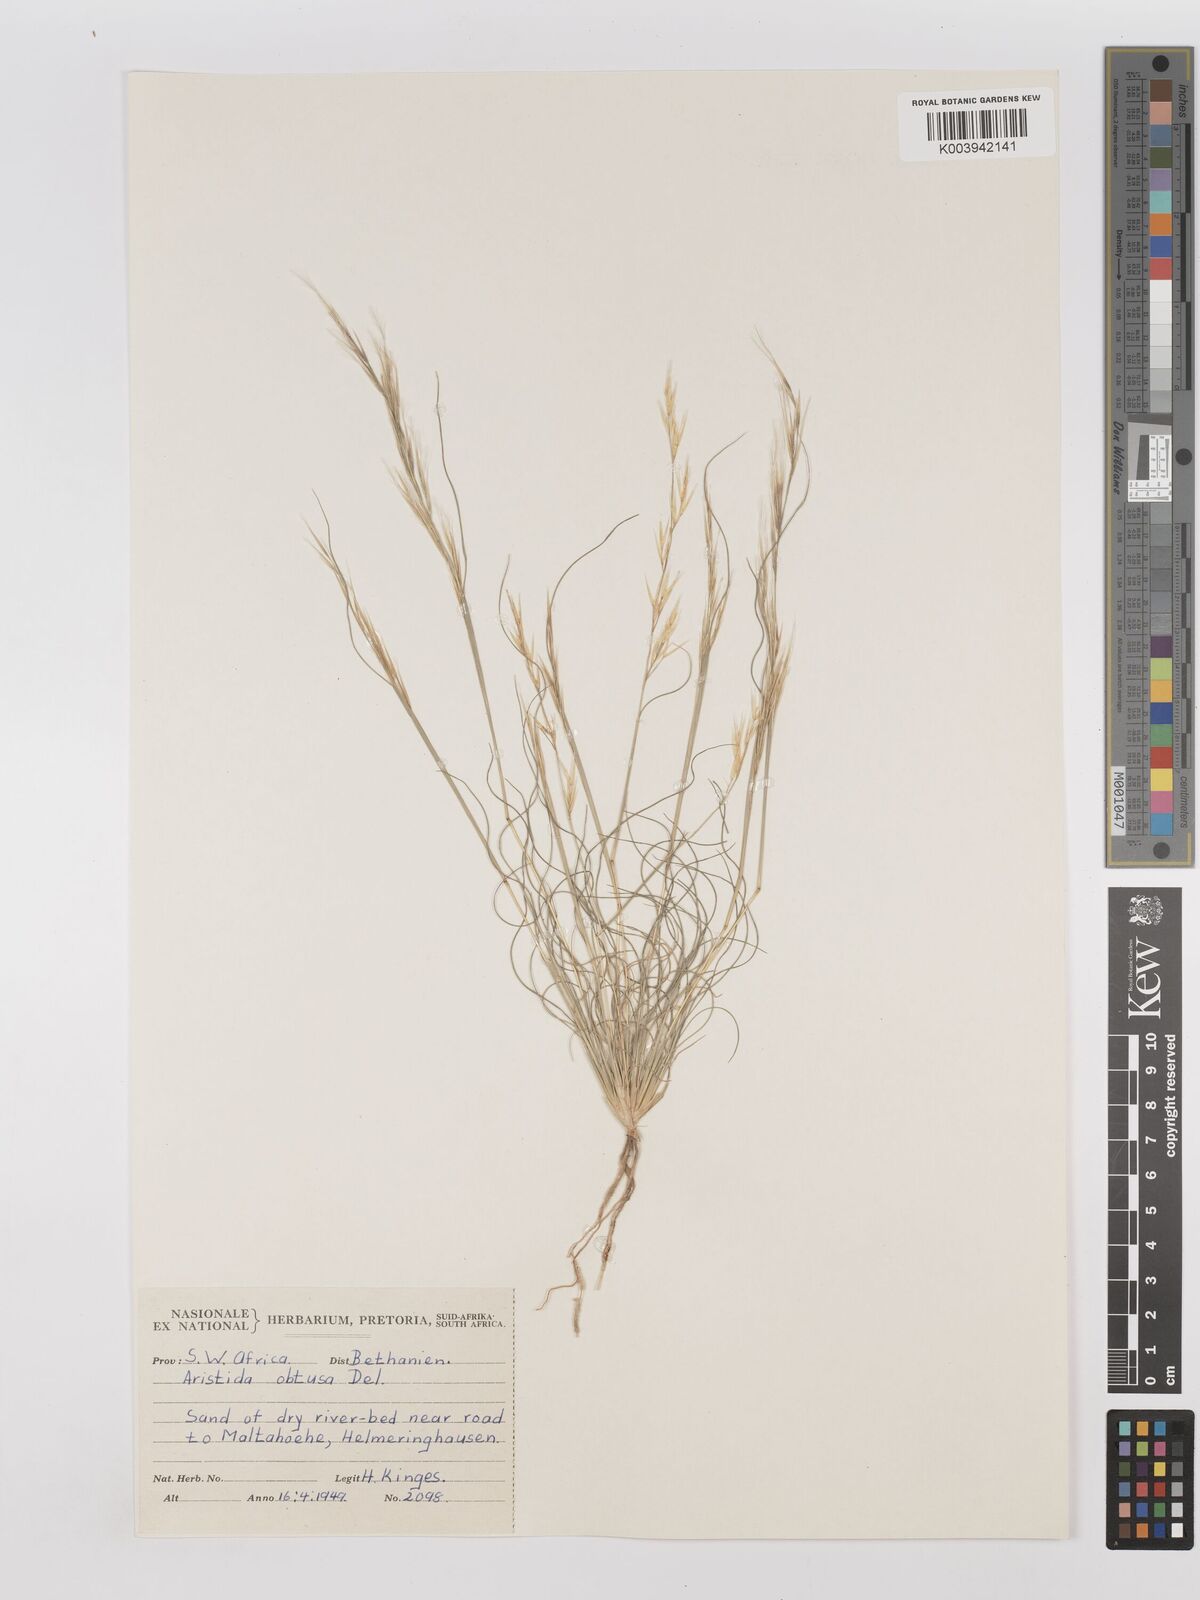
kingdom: Plantae
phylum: Tracheophyta
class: Liliopsida
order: Poales
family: Poaceae
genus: Stipagrostis
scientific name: Stipagrostis obtusa
